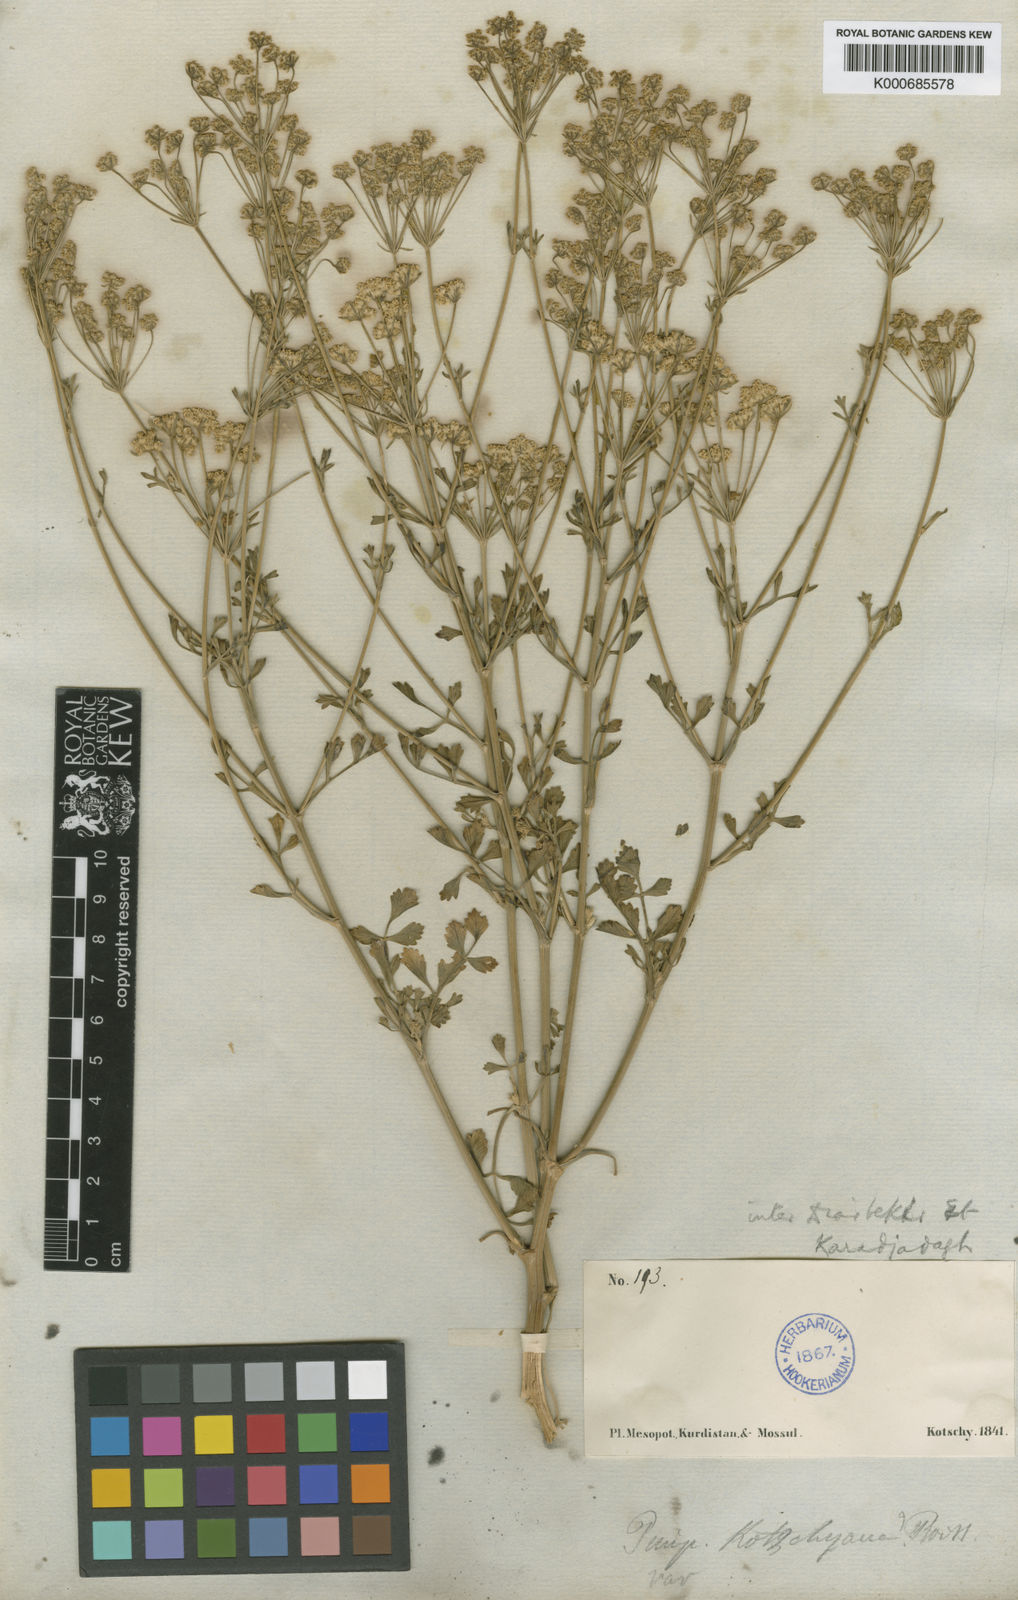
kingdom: Plantae
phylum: Tracheophyta
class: Magnoliopsida
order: Apiales
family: Apiaceae
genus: Pimpinella
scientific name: Pimpinella kotschyana
